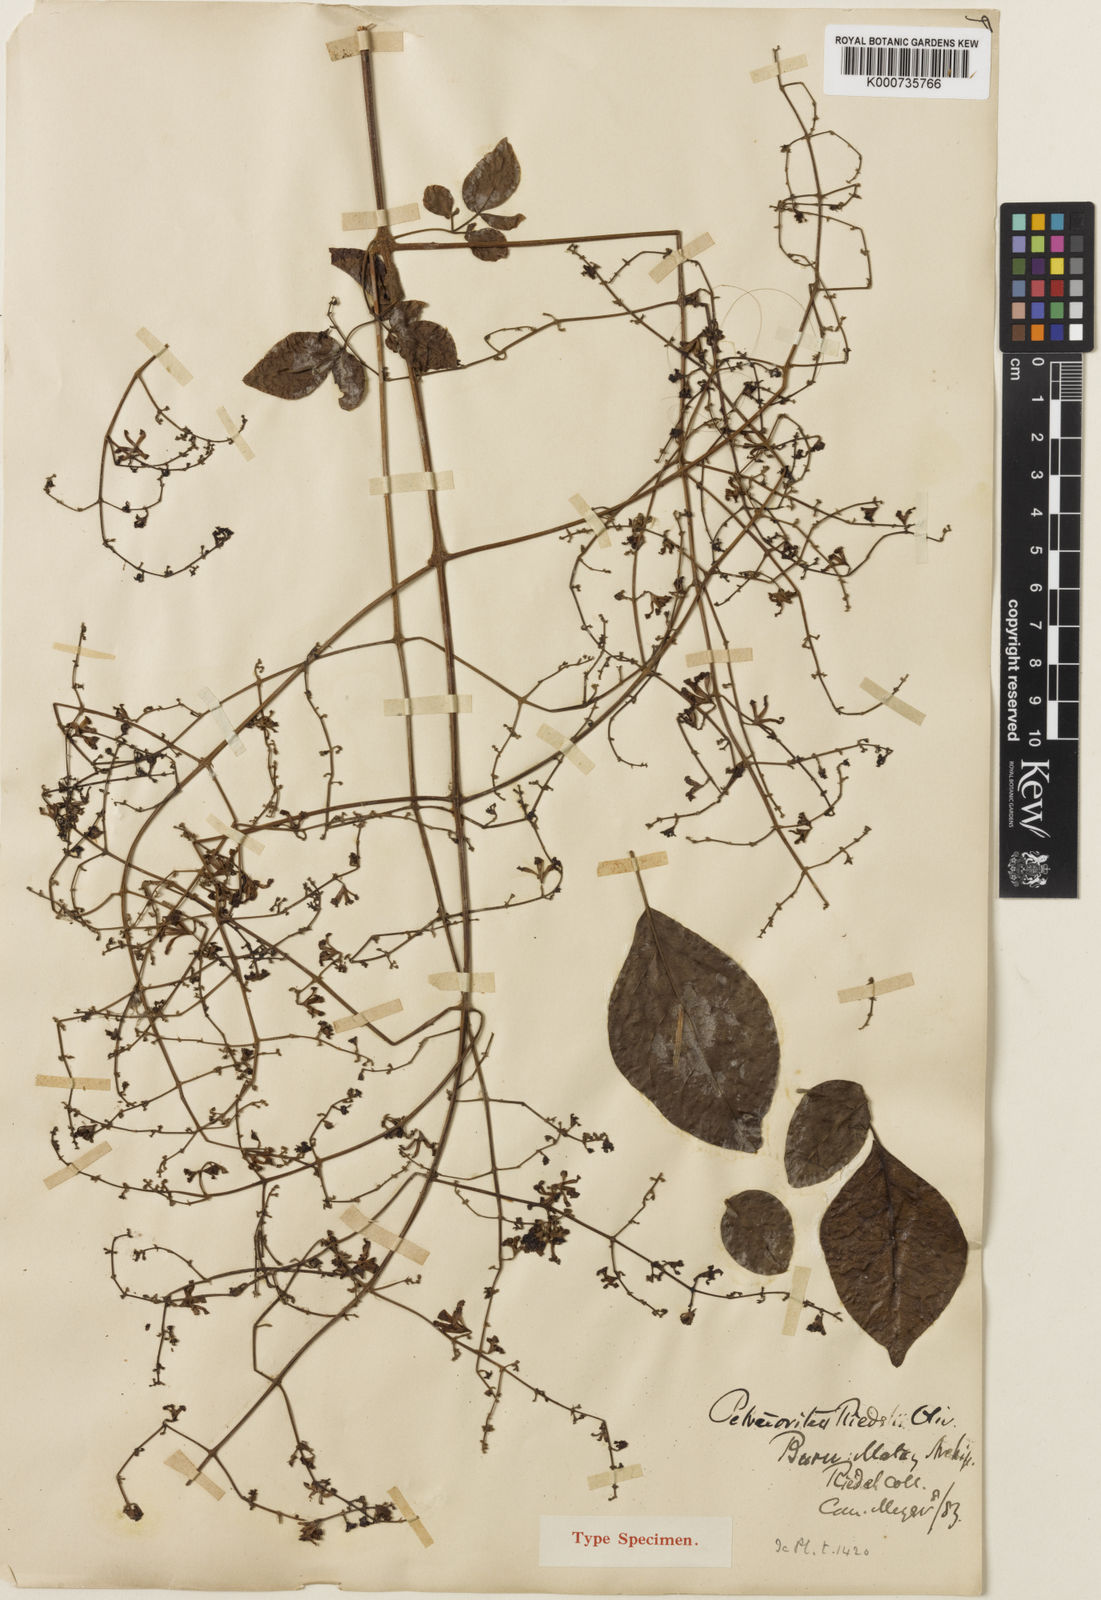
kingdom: Plantae
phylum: Tracheophyta
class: Magnoliopsida
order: Lamiales
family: Lamiaceae
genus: Petraeovitex
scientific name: Petraeovitex multiflora
